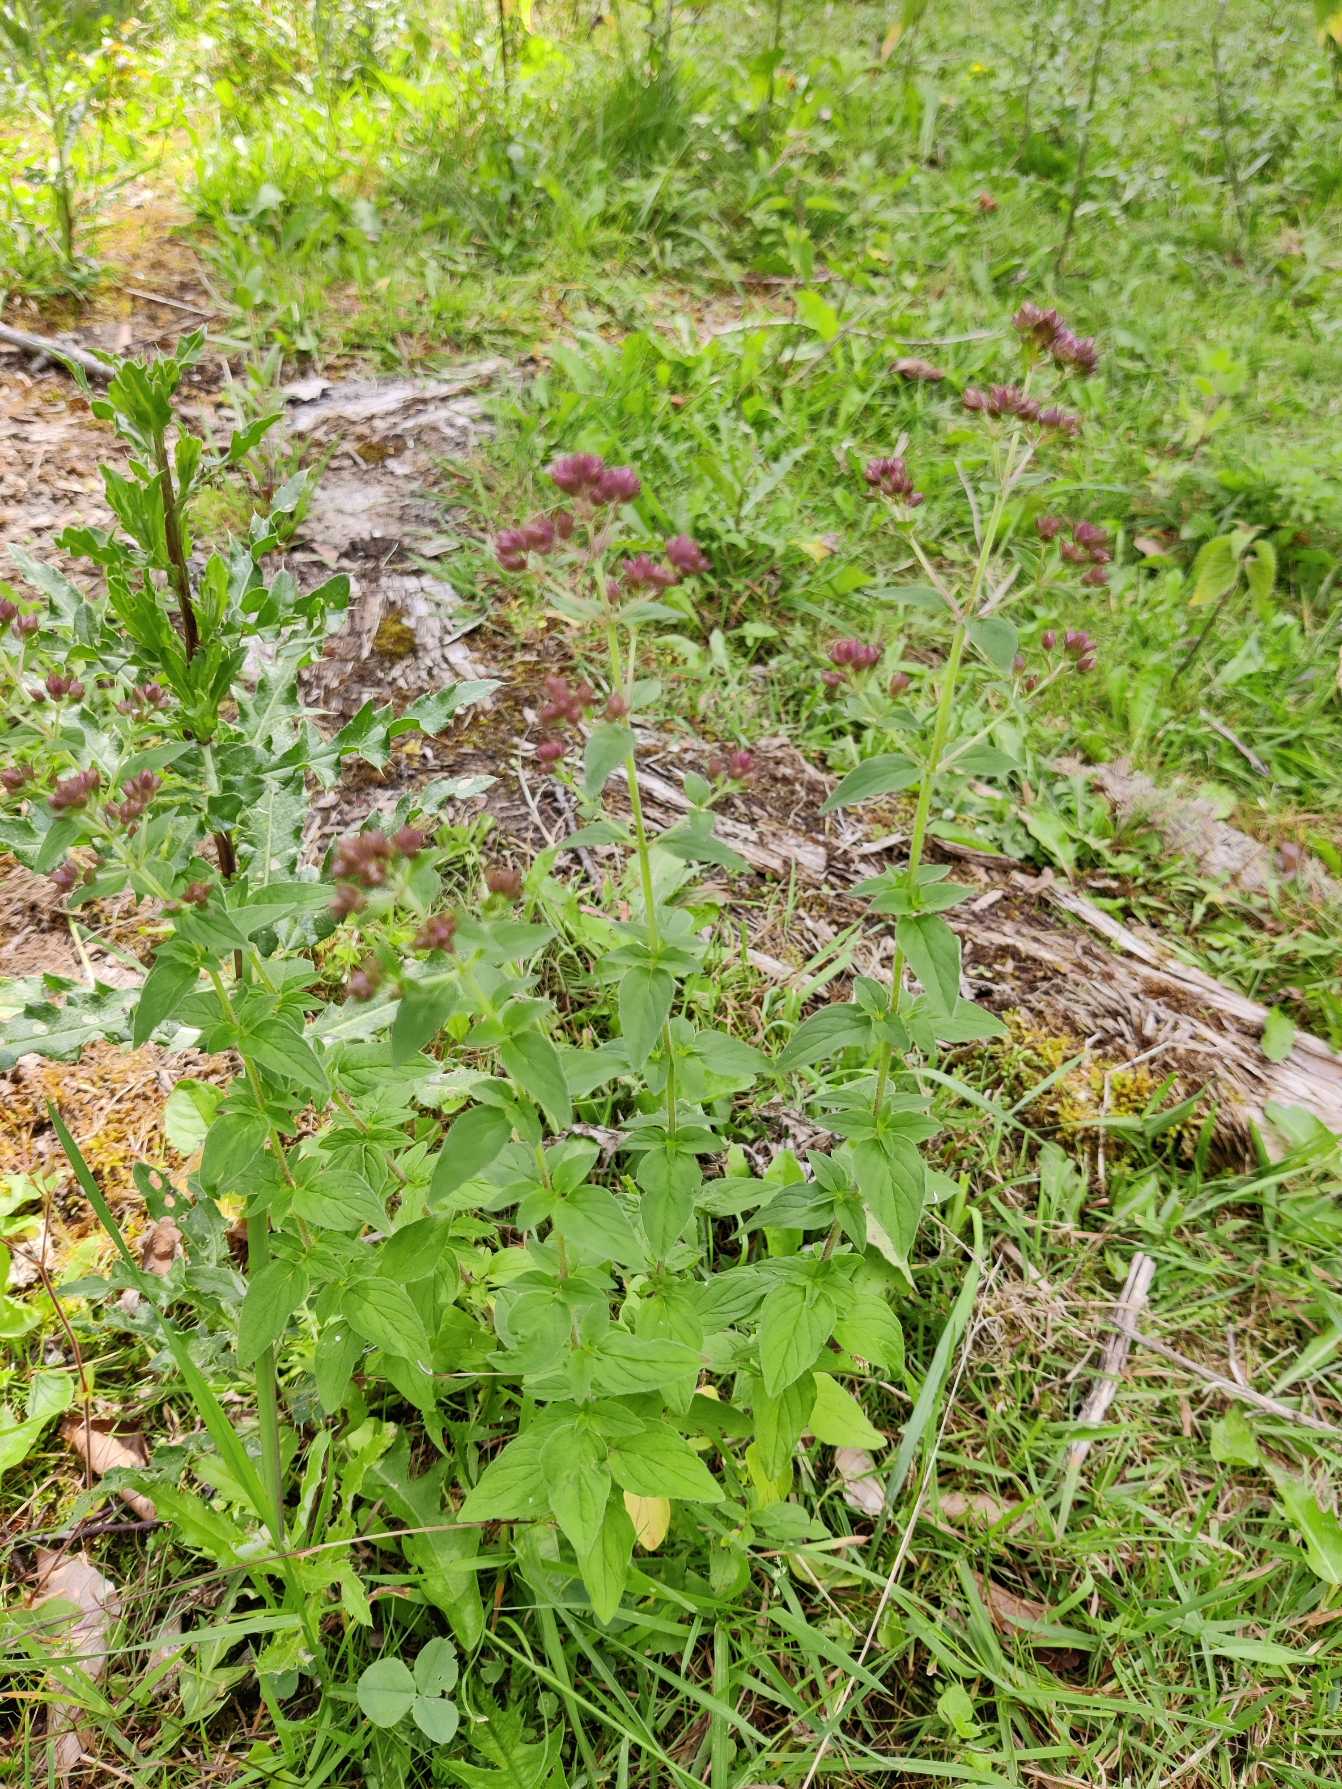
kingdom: Plantae
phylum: Tracheophyta
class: Magnoliopsida
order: Lamiales
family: Lamiaceae
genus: Origanum
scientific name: Origanum vulgare
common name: Merian
